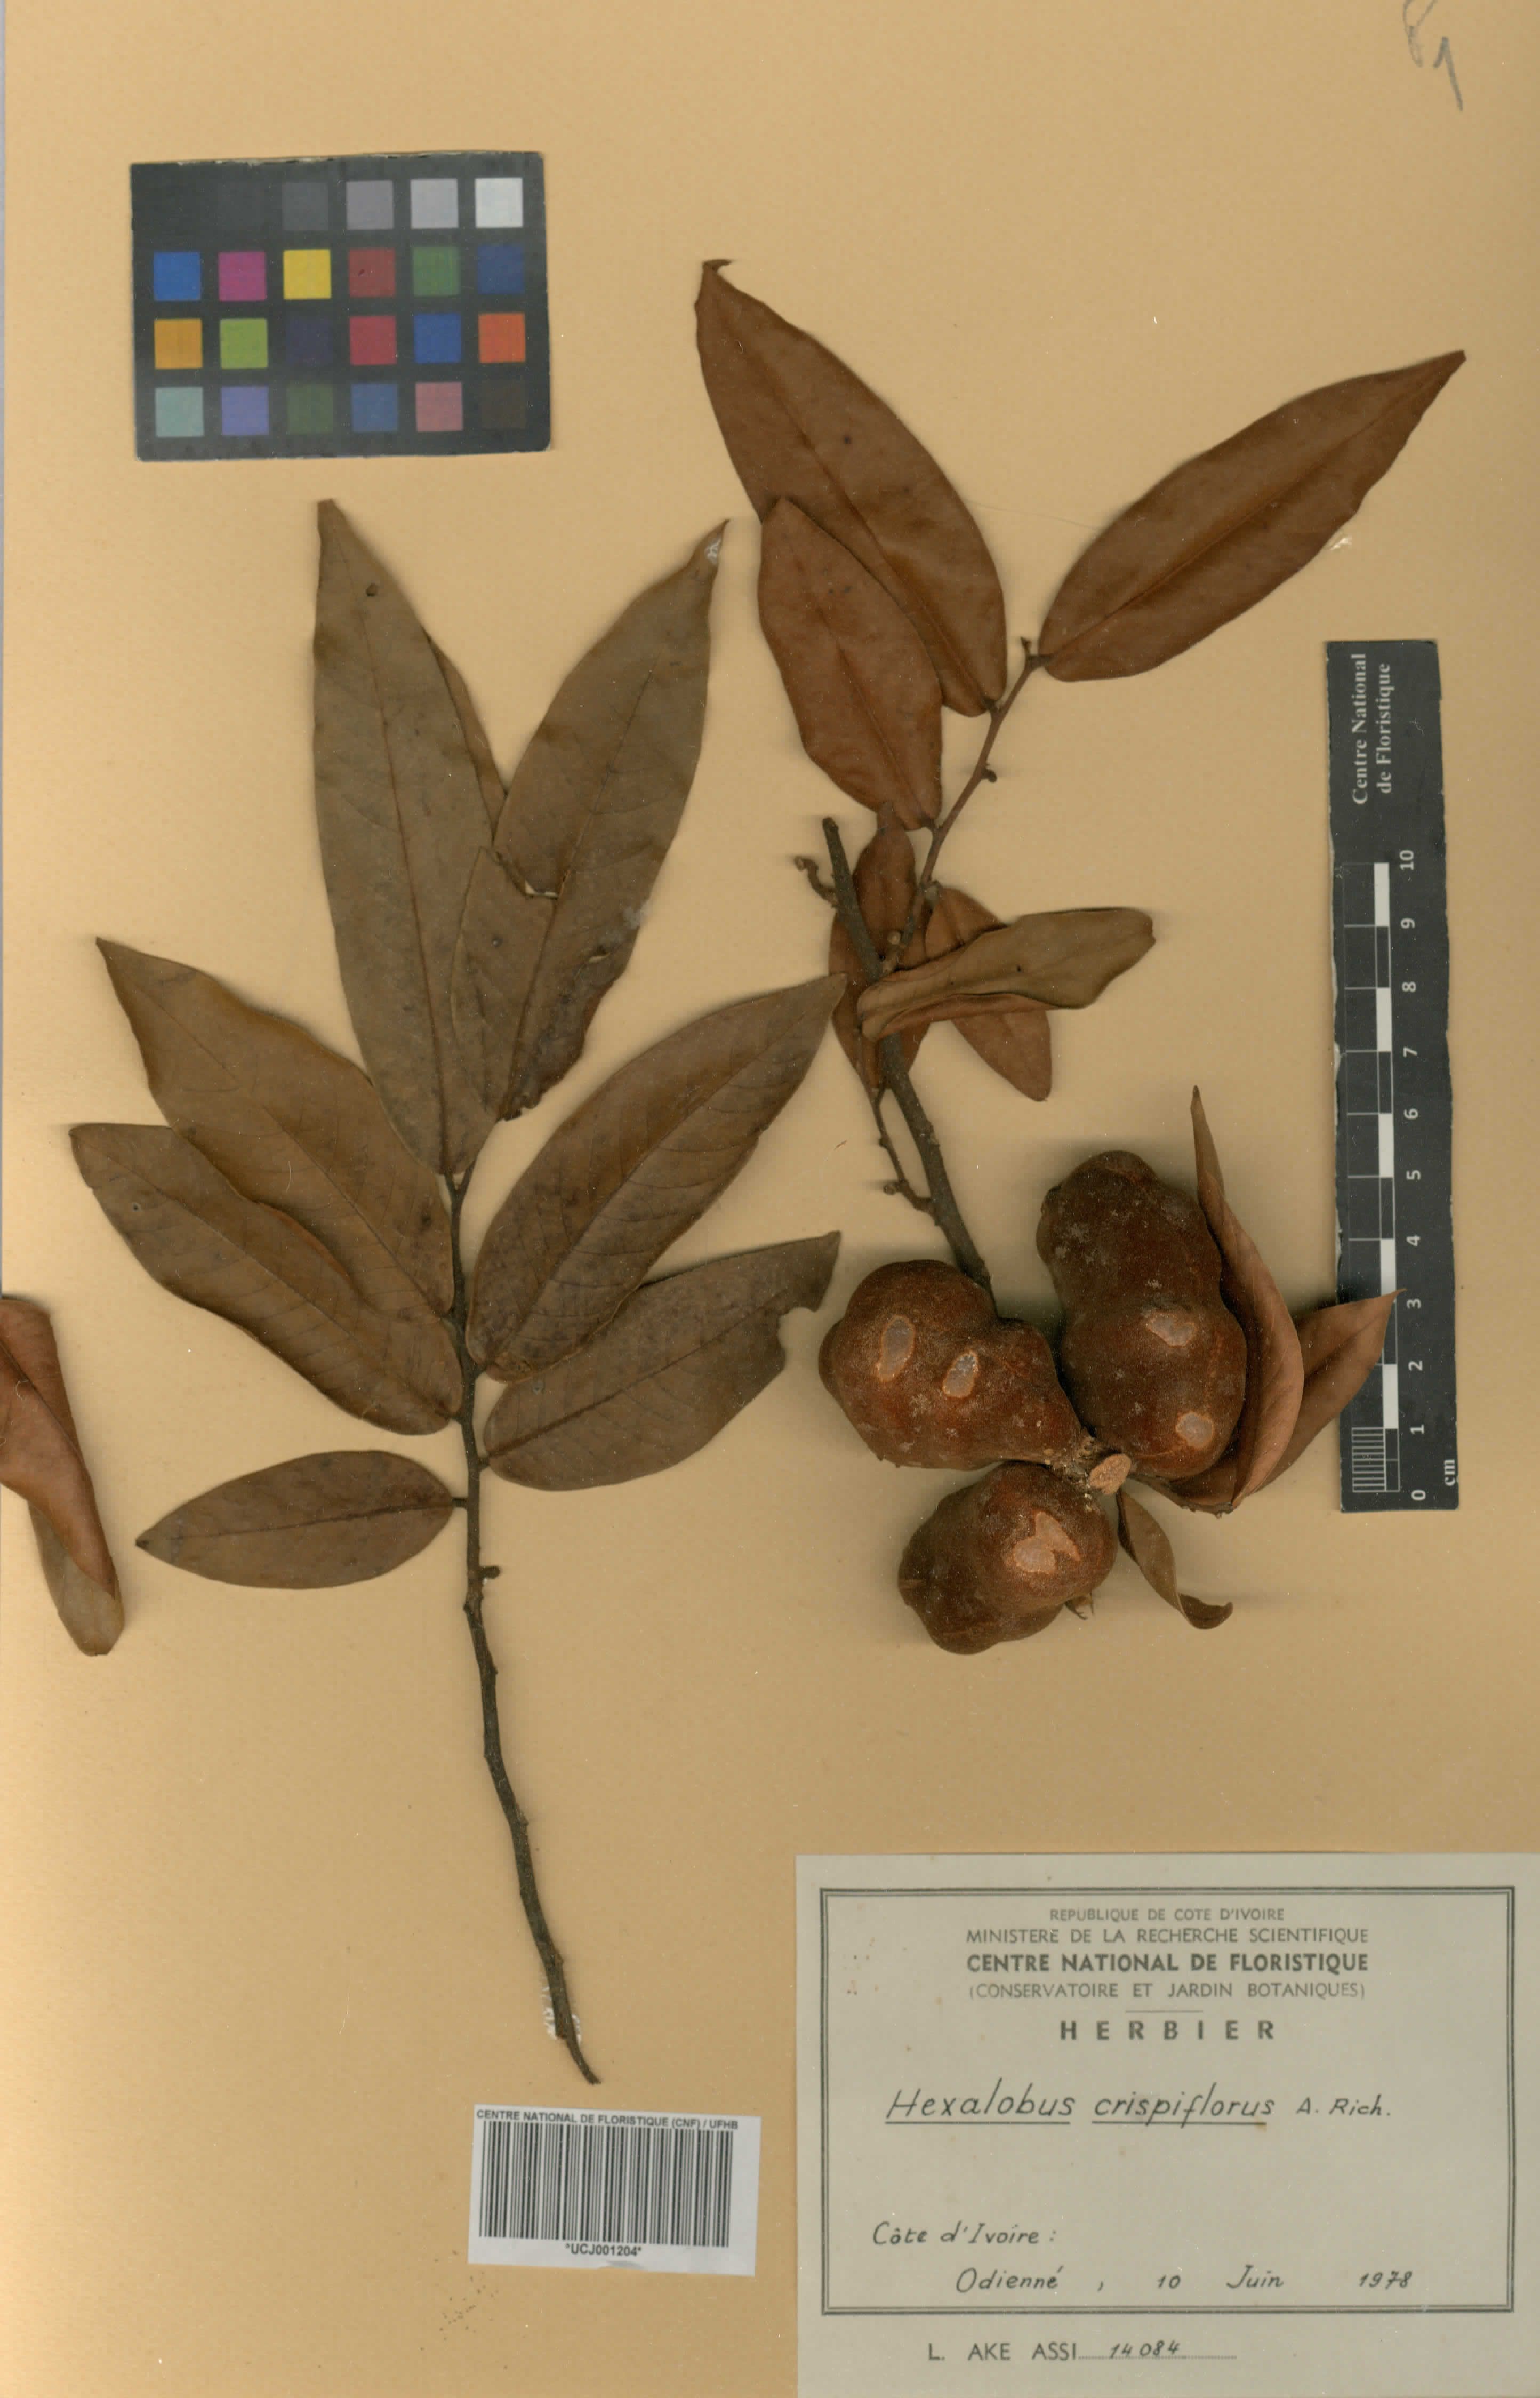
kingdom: Plantae
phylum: Tracheophyta
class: Magnoliopsida
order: Magnoliales
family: Annonaceae
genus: Hexalobus
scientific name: Hexalobus crispiflorus
